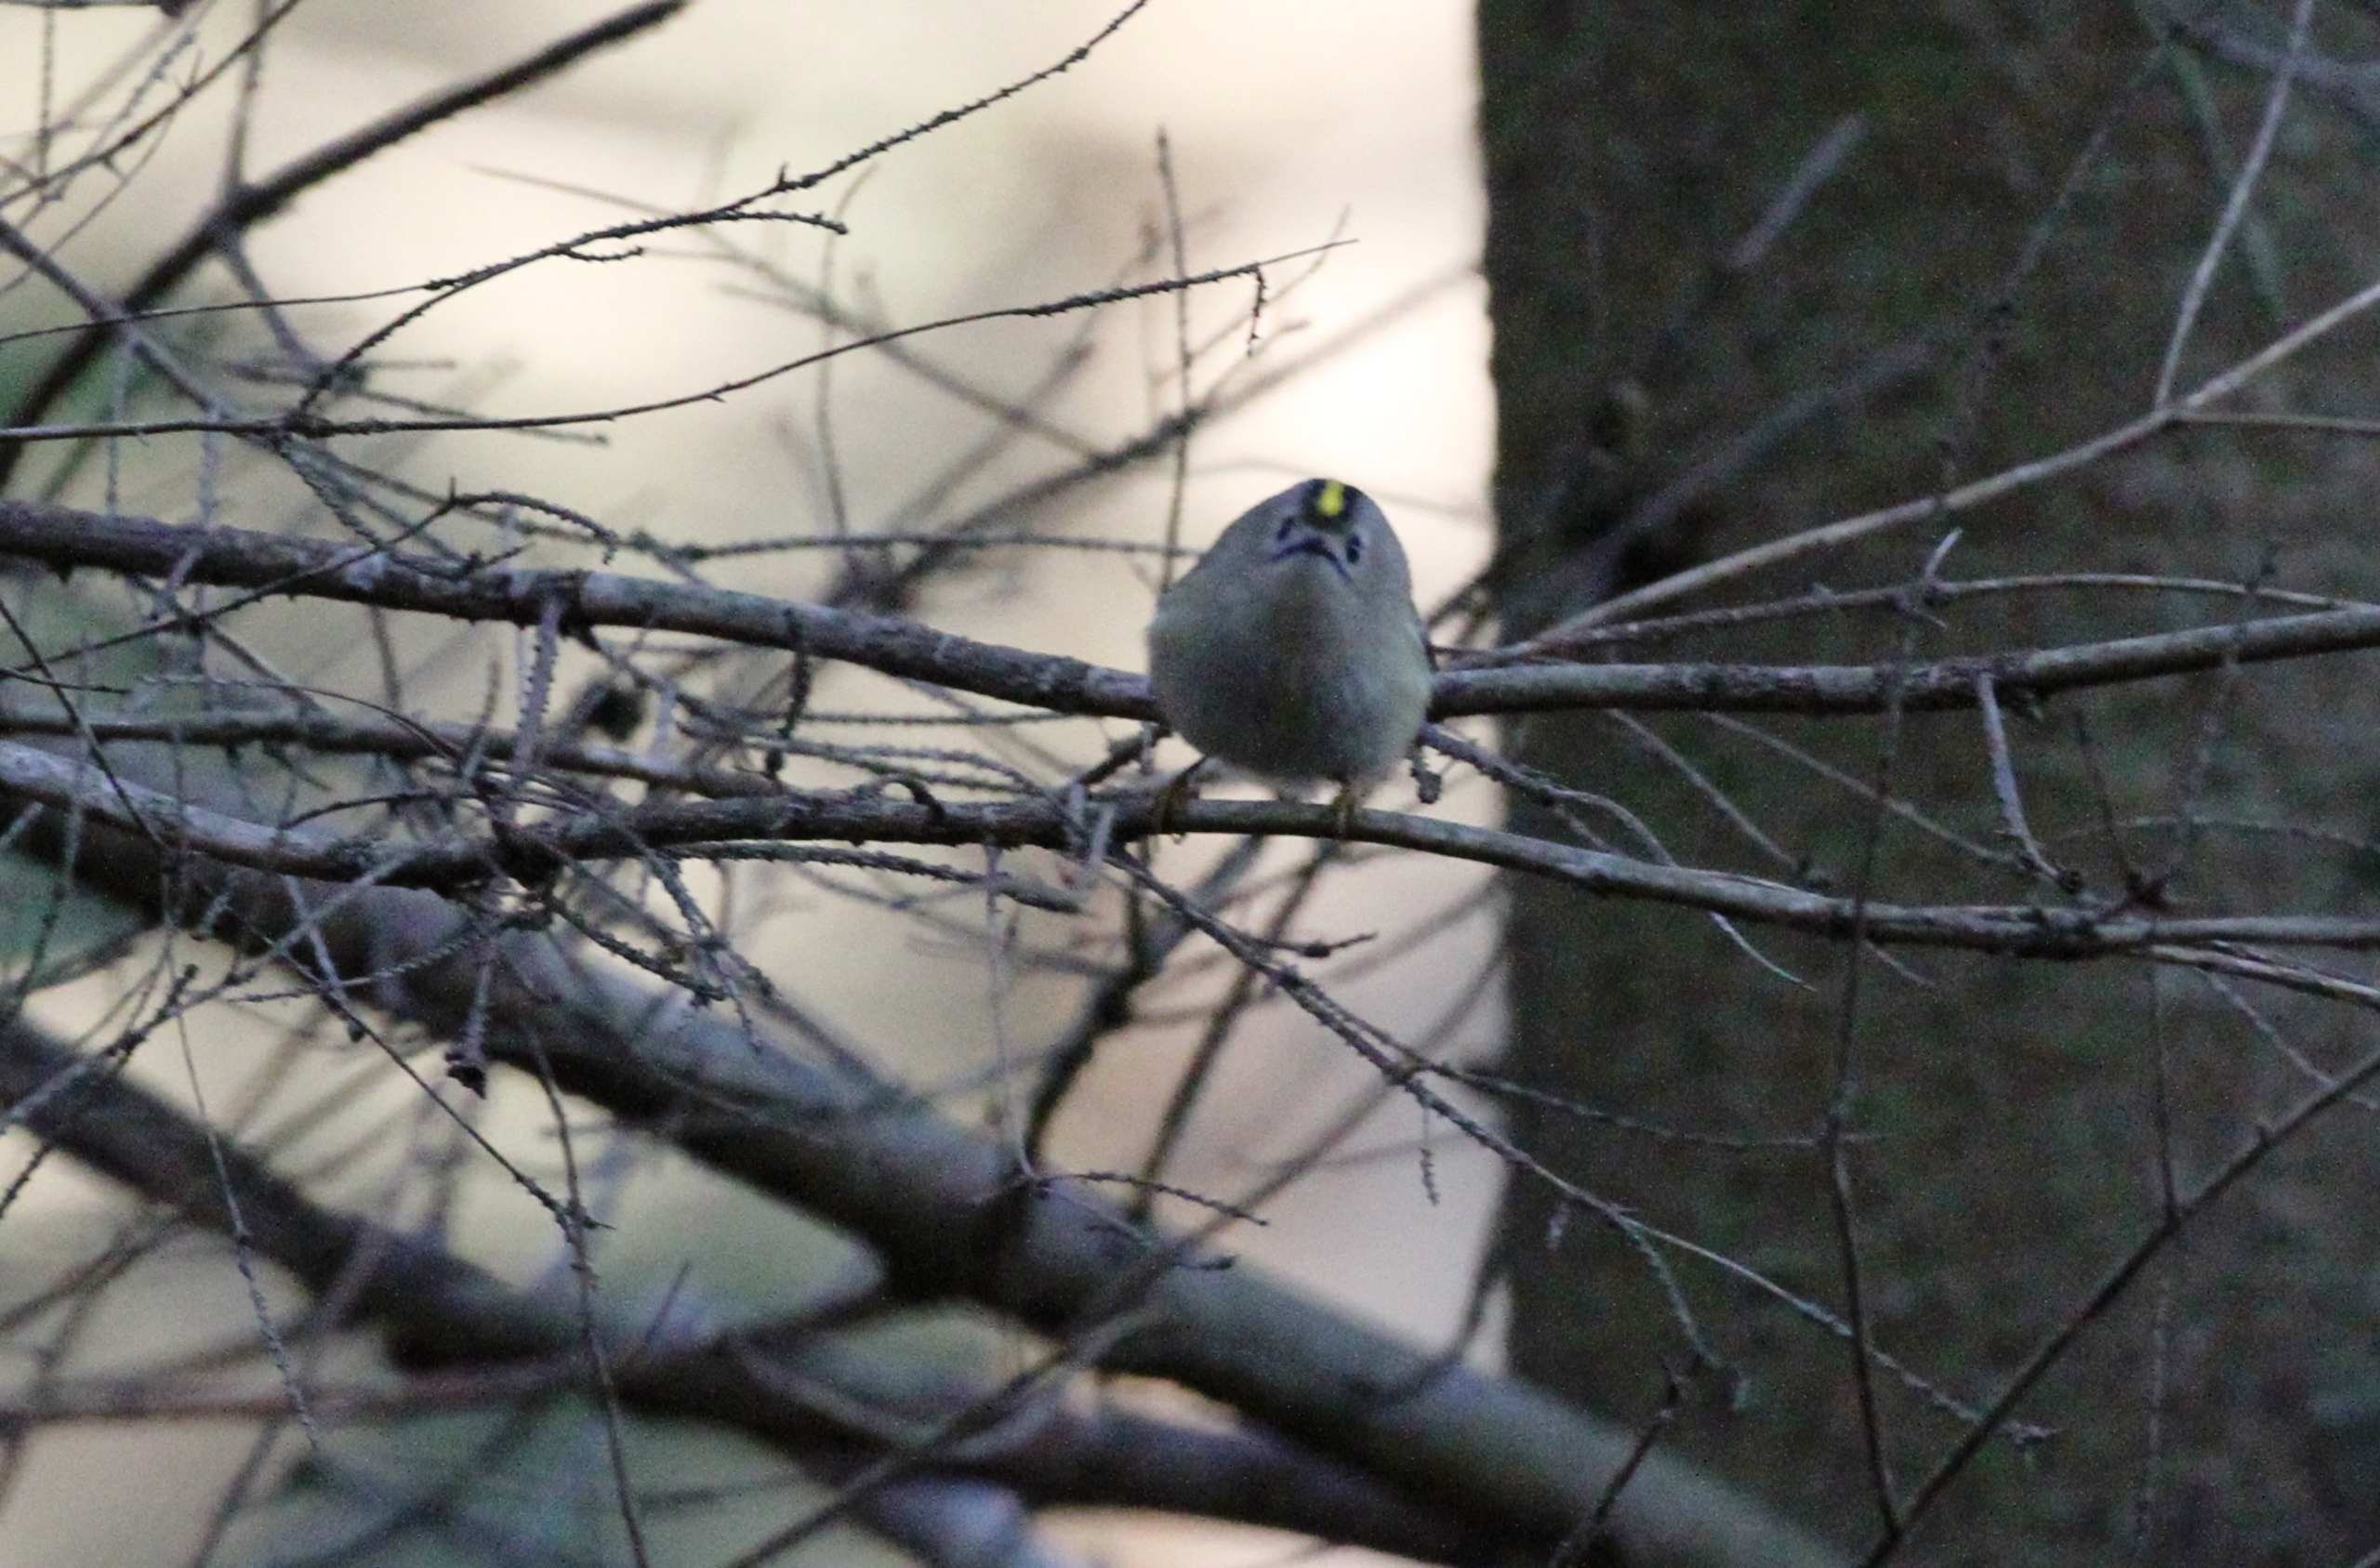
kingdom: Animalia
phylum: Chordata
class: Aves
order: Passeriformes
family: Regulidae
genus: Regulus
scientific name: Regulus regulus
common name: Fuglekonge
